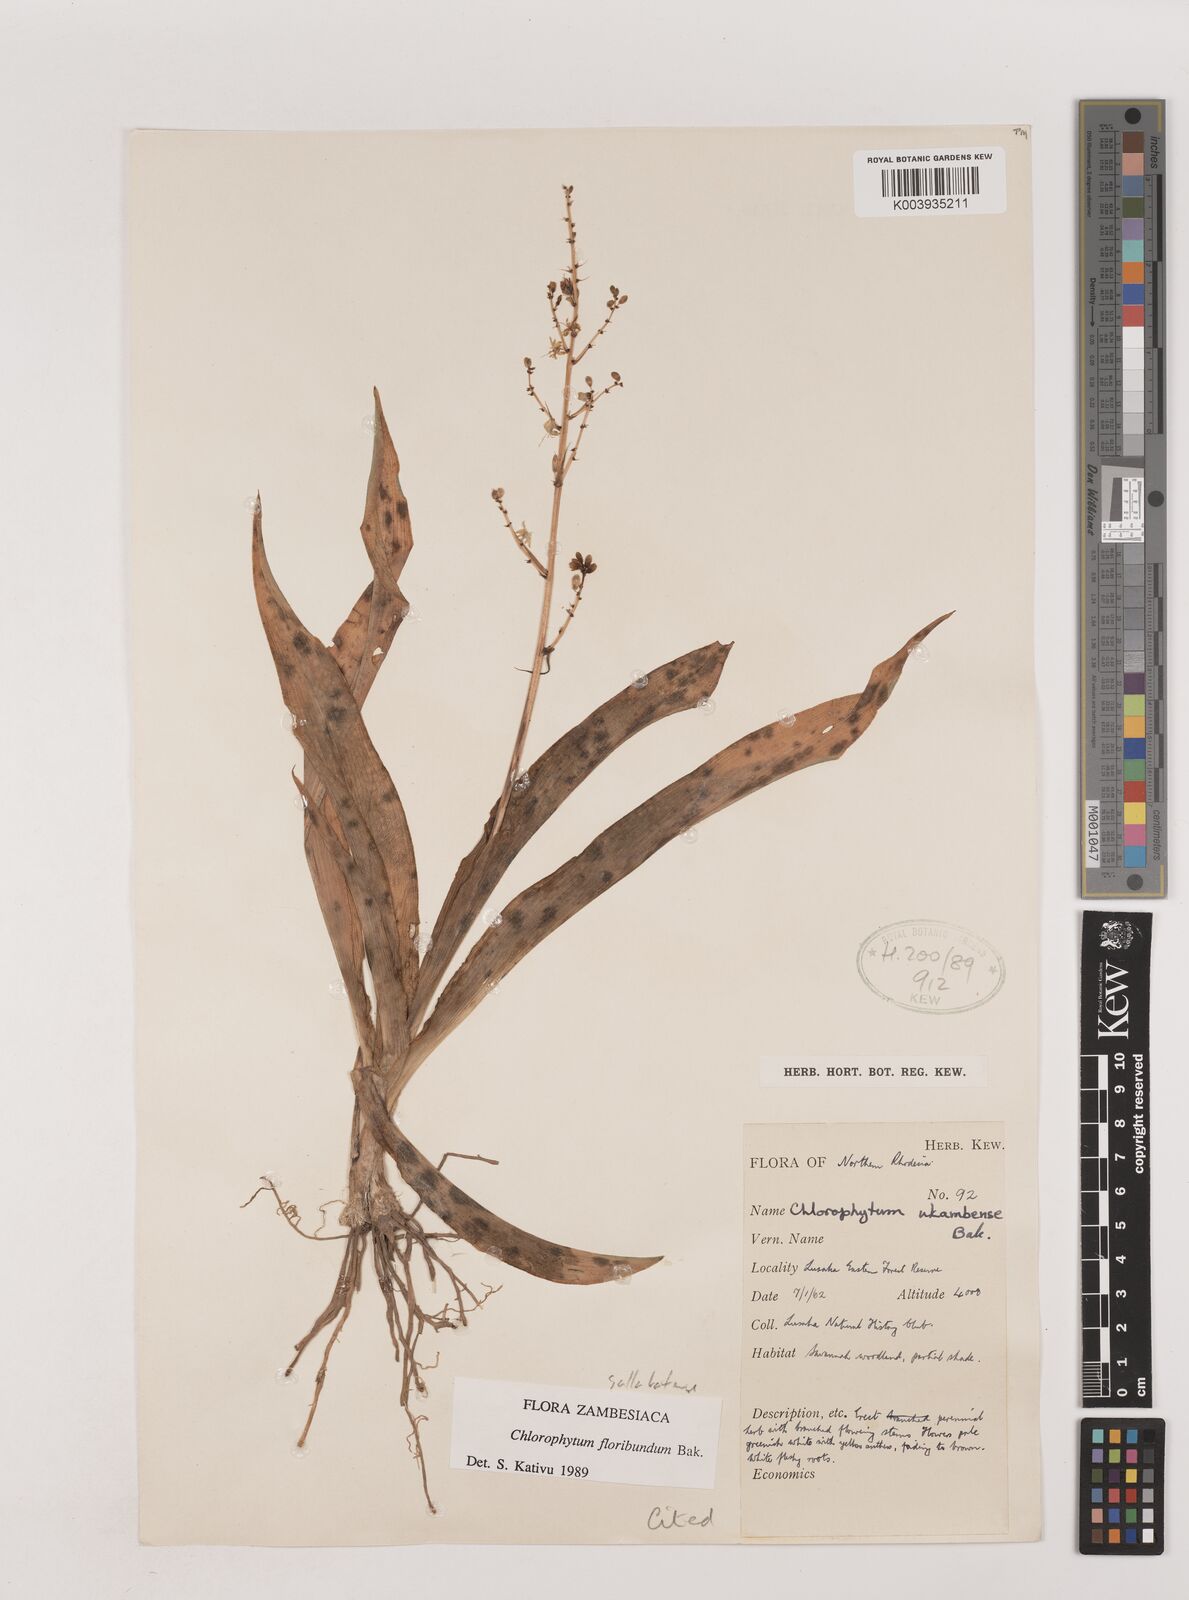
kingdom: Plantae
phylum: Tracheophyta
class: Liliopsida
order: Asparagales
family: Asparagaceae
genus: Chlorophytum
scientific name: Chlorophytum gallabatense
